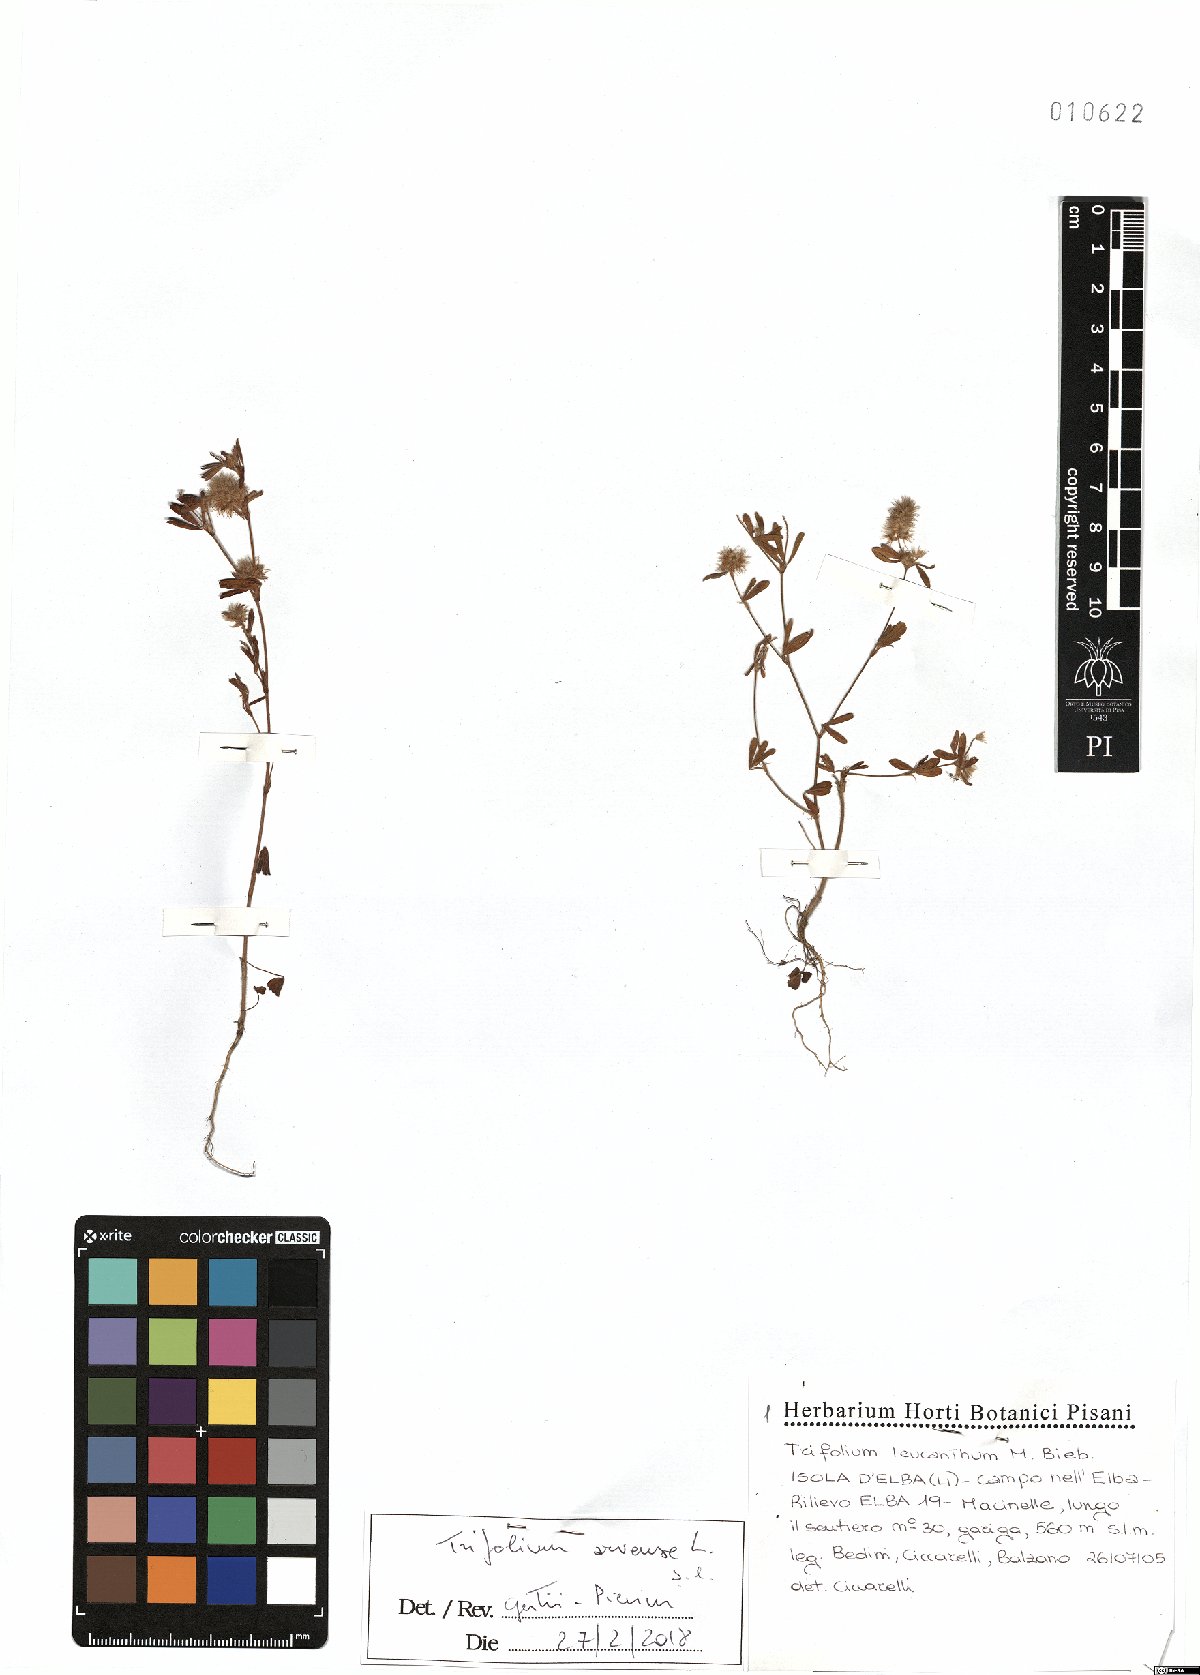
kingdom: Plantae
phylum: Tracheophyta
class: Magnoliopsida
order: Fabales
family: Fabaceae
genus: Trifolium
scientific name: Trifolium arvense
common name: Hare's-foot clover
